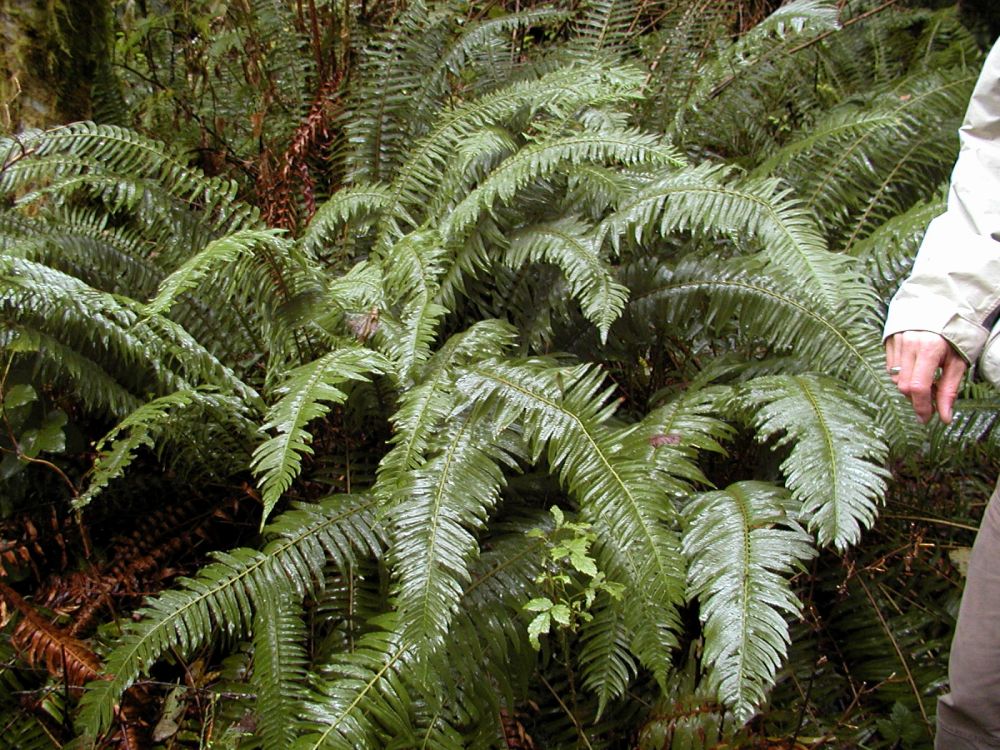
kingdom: Plantae
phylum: Tracheophyta
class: Polypodiopsida
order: Polypodiales
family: Dryopteridaceae
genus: Polystichum
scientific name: Polystichum munitum
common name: Western sword-fern
